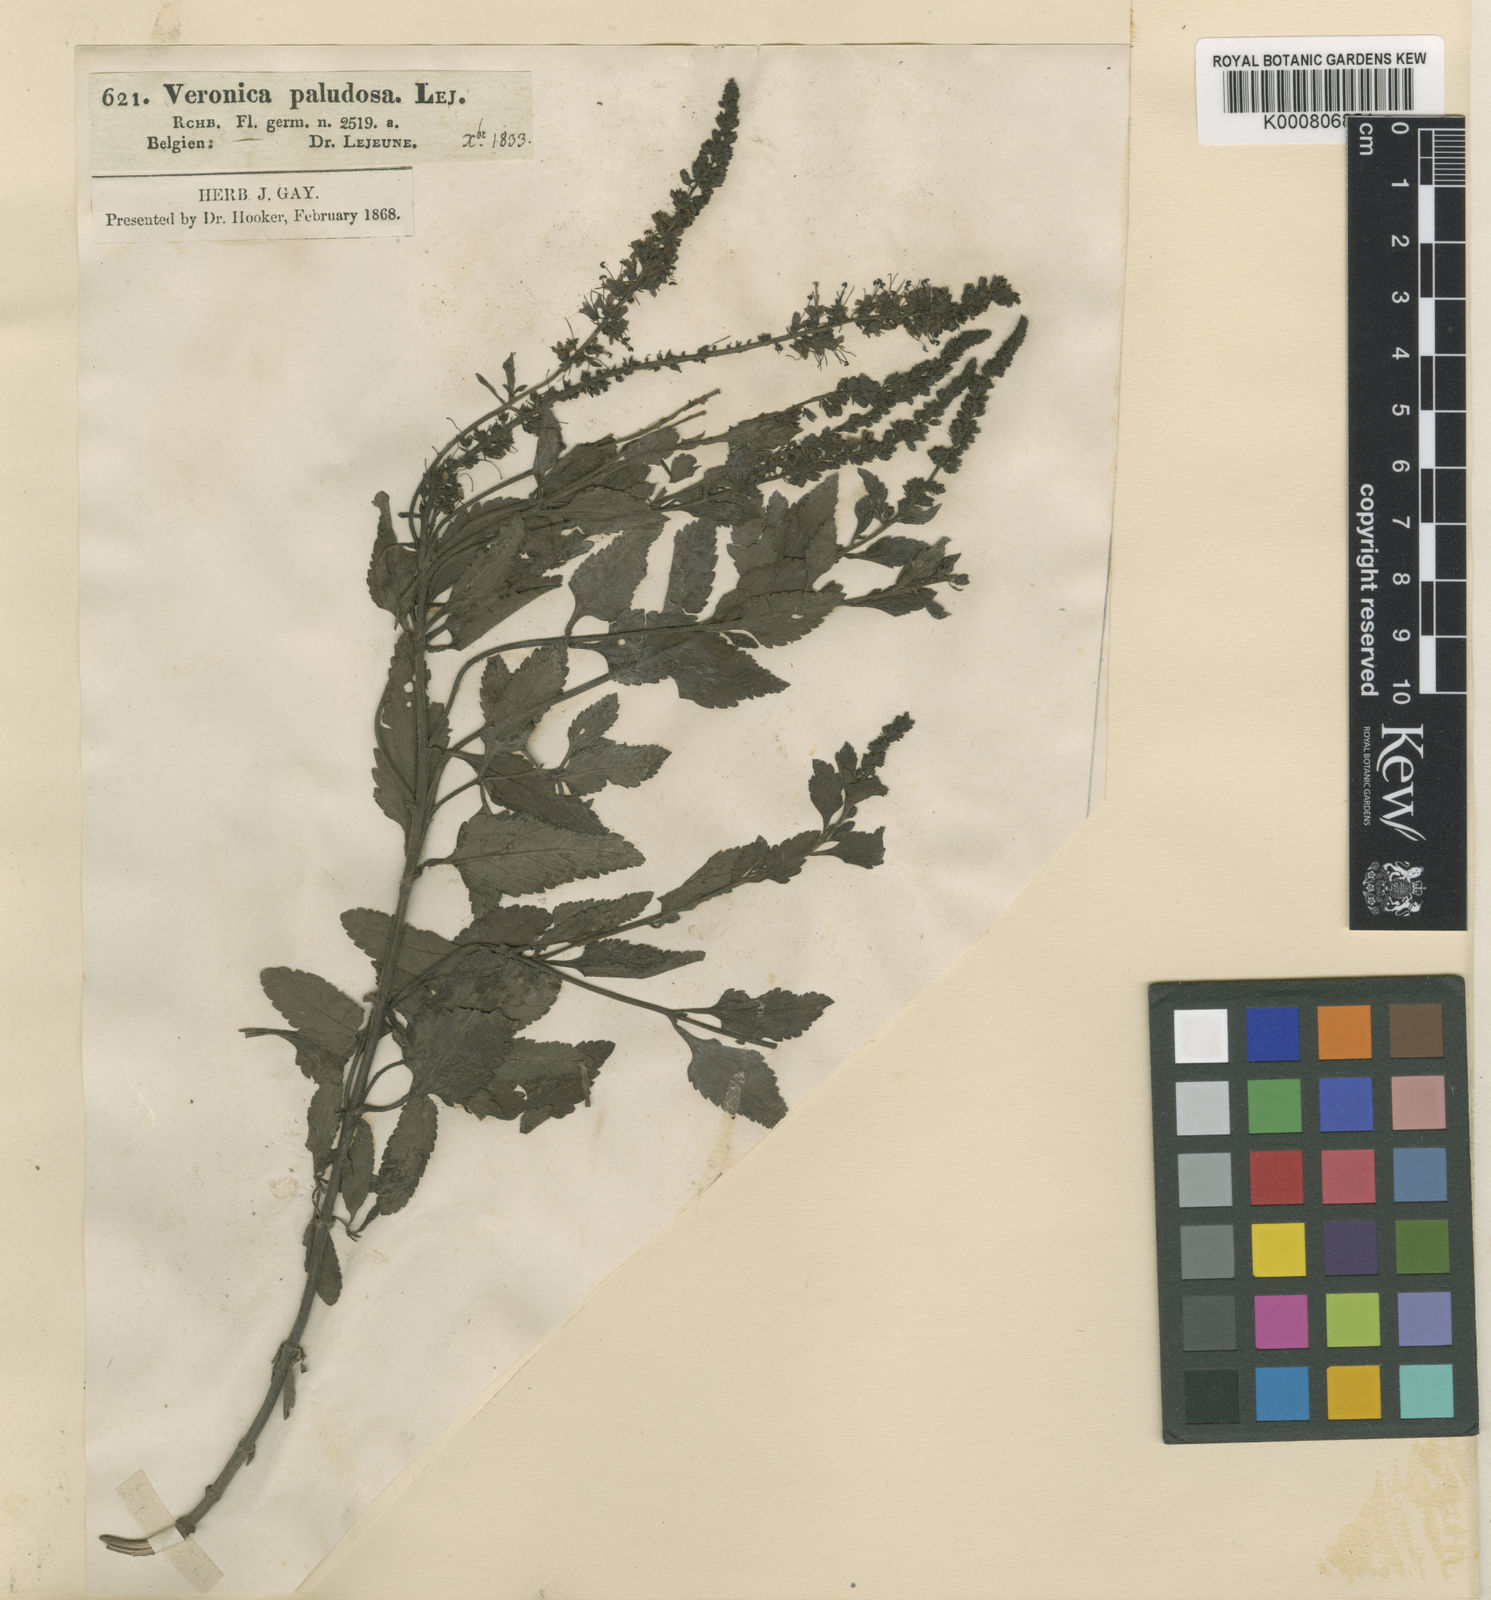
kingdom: Plantae
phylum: Tracheophyta
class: Magnoliopsida
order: Lamiales
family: Plantaginaceae
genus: Veronica
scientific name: Veronica maritima
